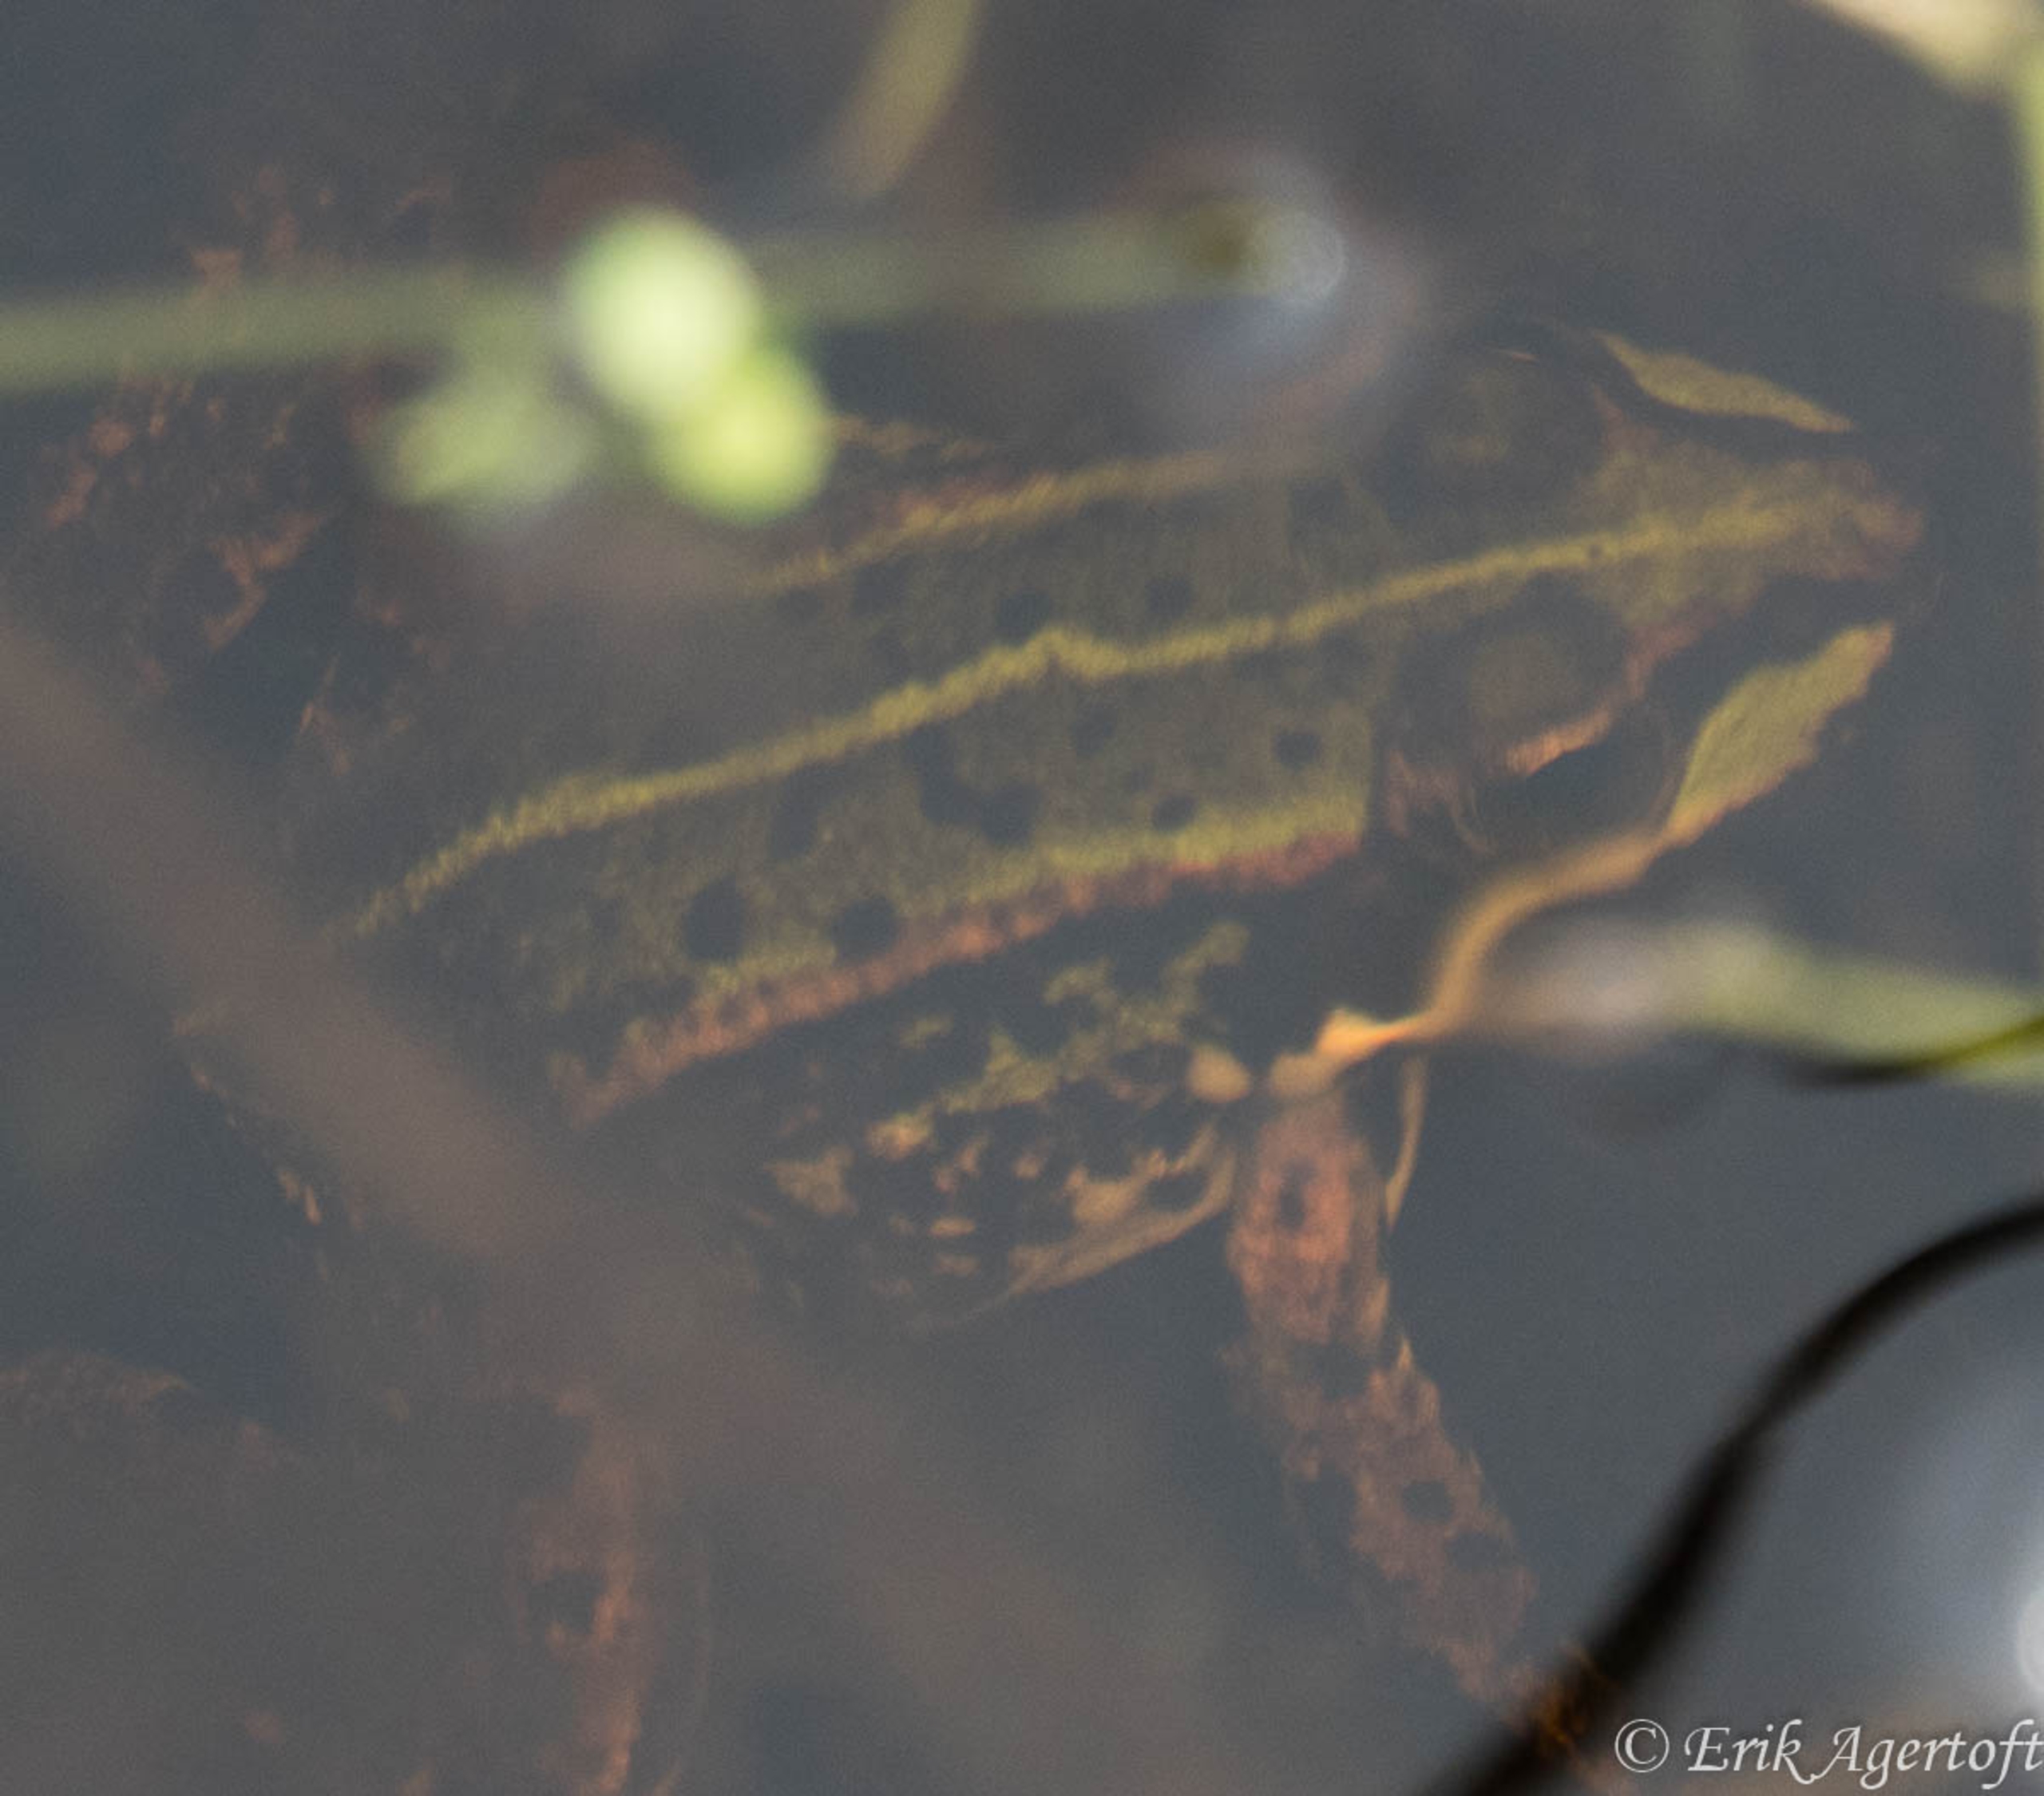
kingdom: Animalia
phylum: Chordata
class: Amphibia
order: Anura
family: Ranidae
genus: Pelophylax
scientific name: Pelophylax lessonae
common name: Grøn frø
